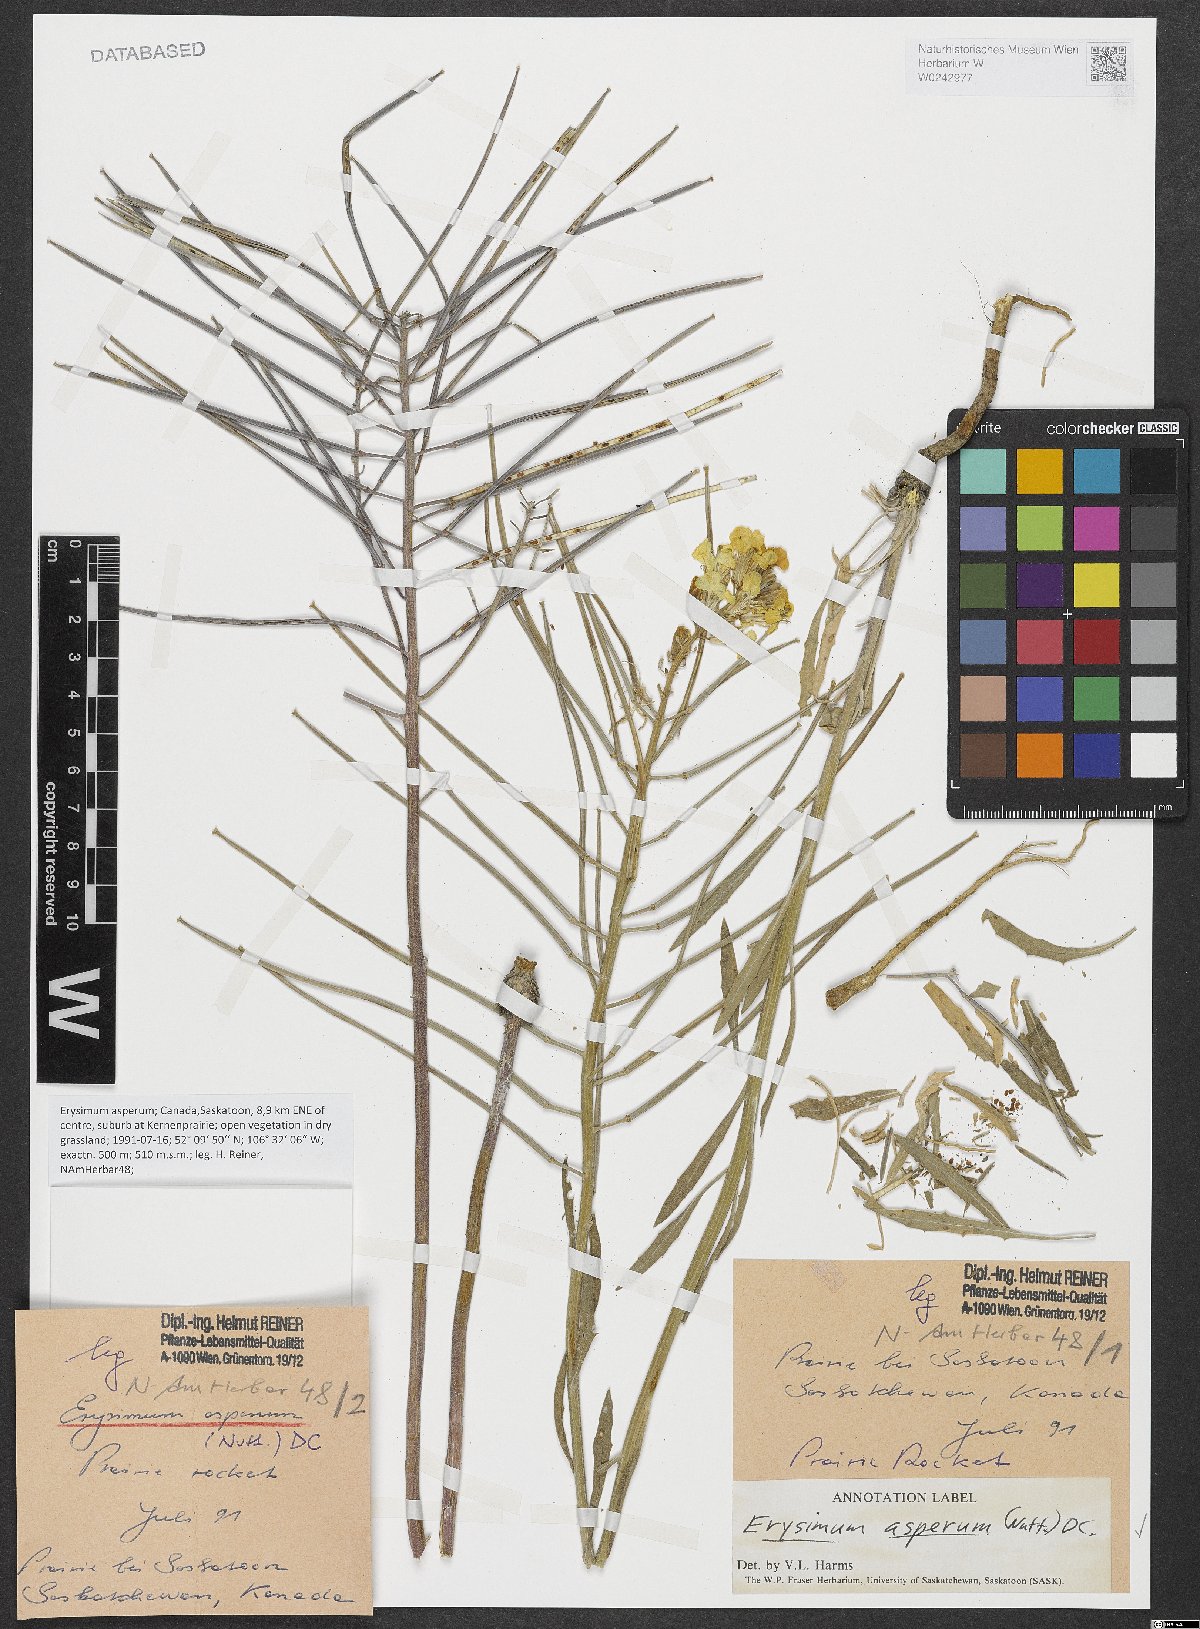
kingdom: Plantae
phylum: Tracheophyta
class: Magnoliopsida
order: Brassicales
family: Brassicaceae
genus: Erysimum
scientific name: Erysimum asperum
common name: Western wallflower
